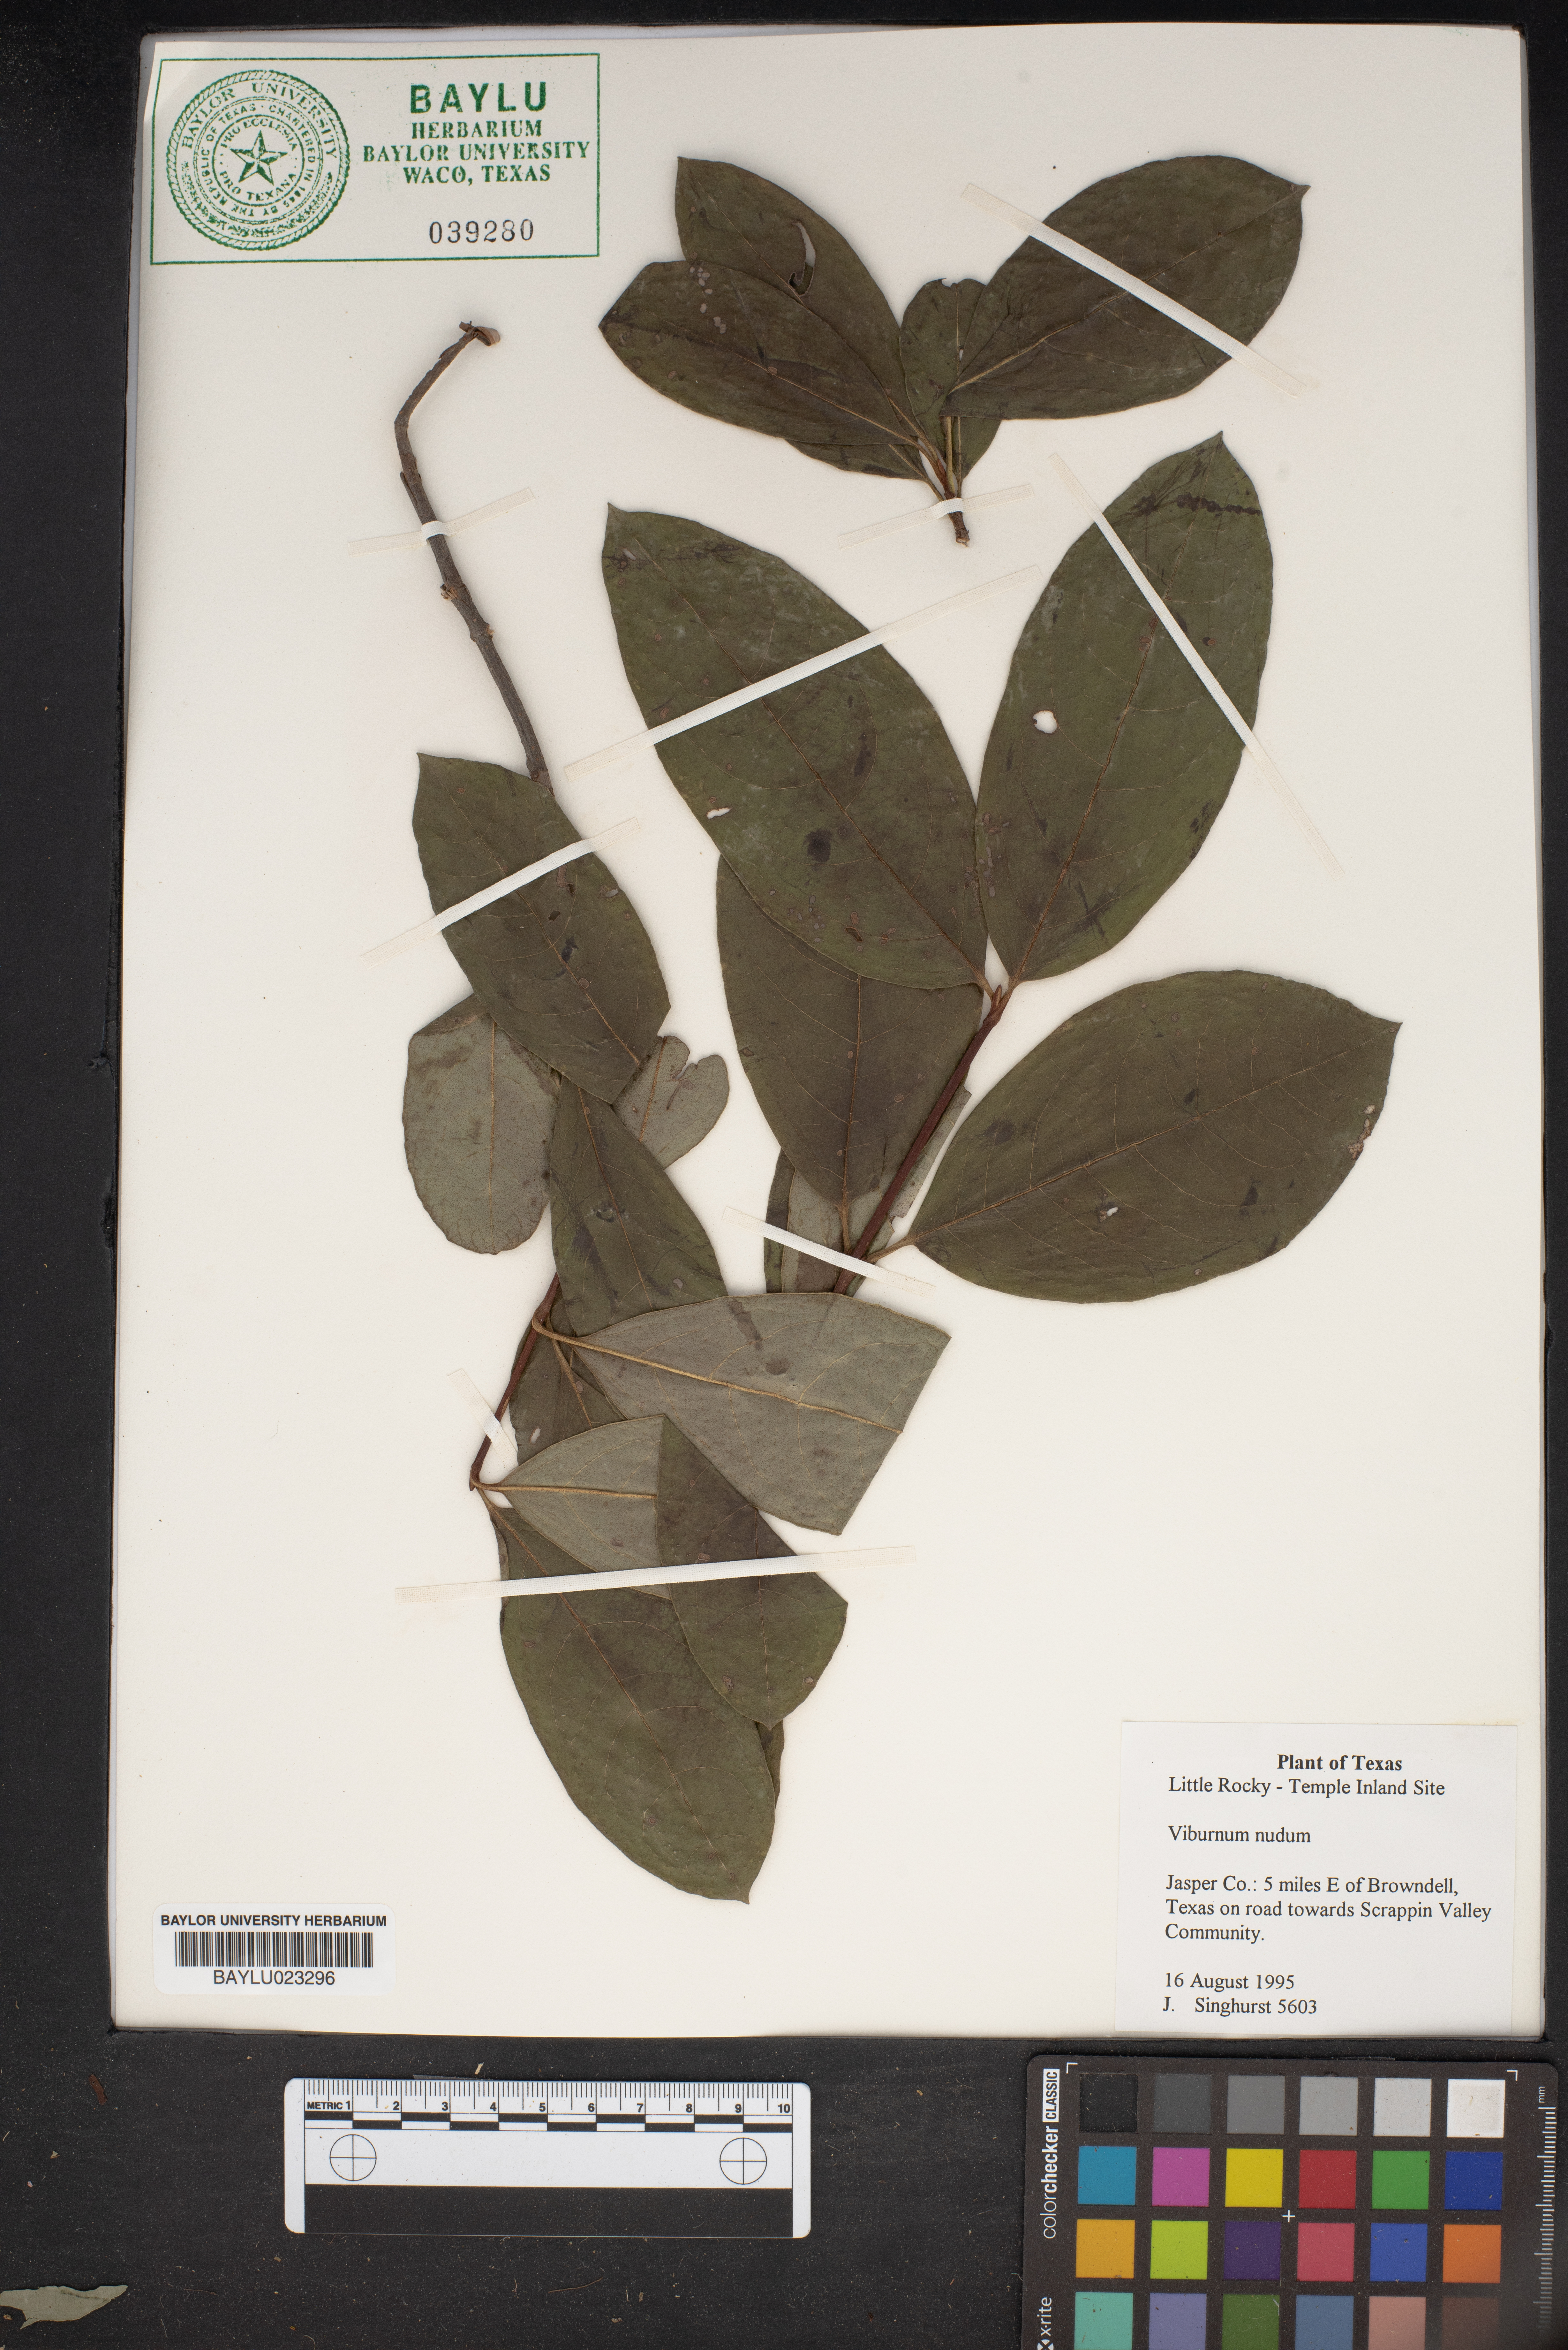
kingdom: Plantae
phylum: Tracheophyta
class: Magnoliopsida
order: Dipsacales
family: Viburnaceae
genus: Viburnum
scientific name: Viburnum nudum
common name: Possum haw
